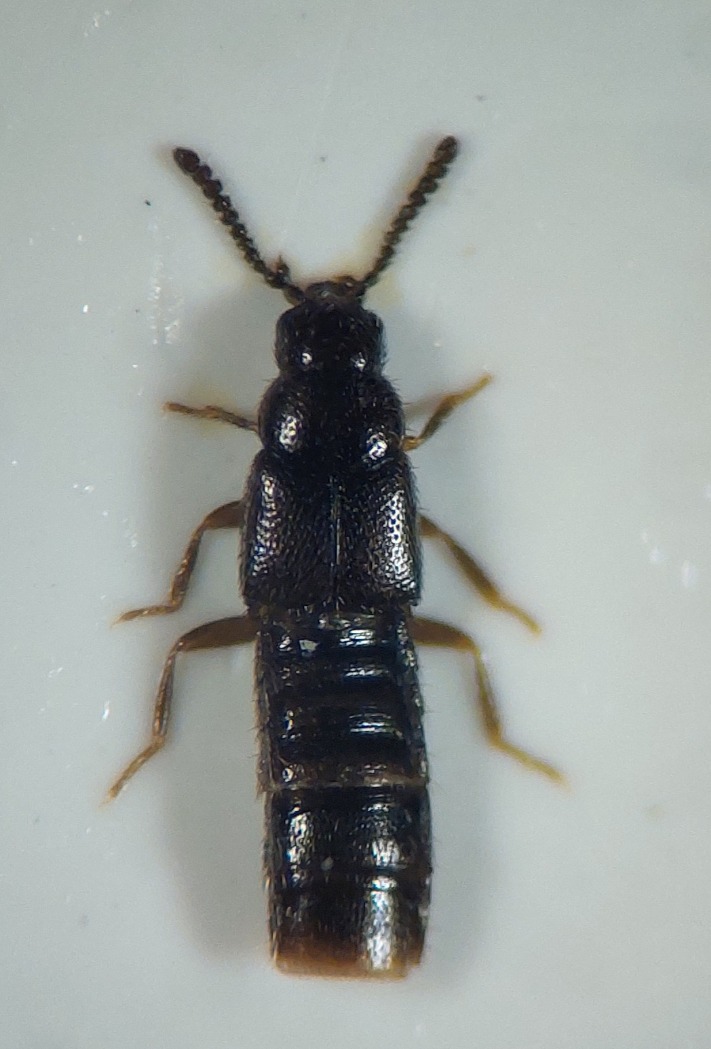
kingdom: Animalia
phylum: Arthropoda
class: Insecta
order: Coleoptera
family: Staphylinidae
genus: Zoosetha
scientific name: Zoosetha incisa
